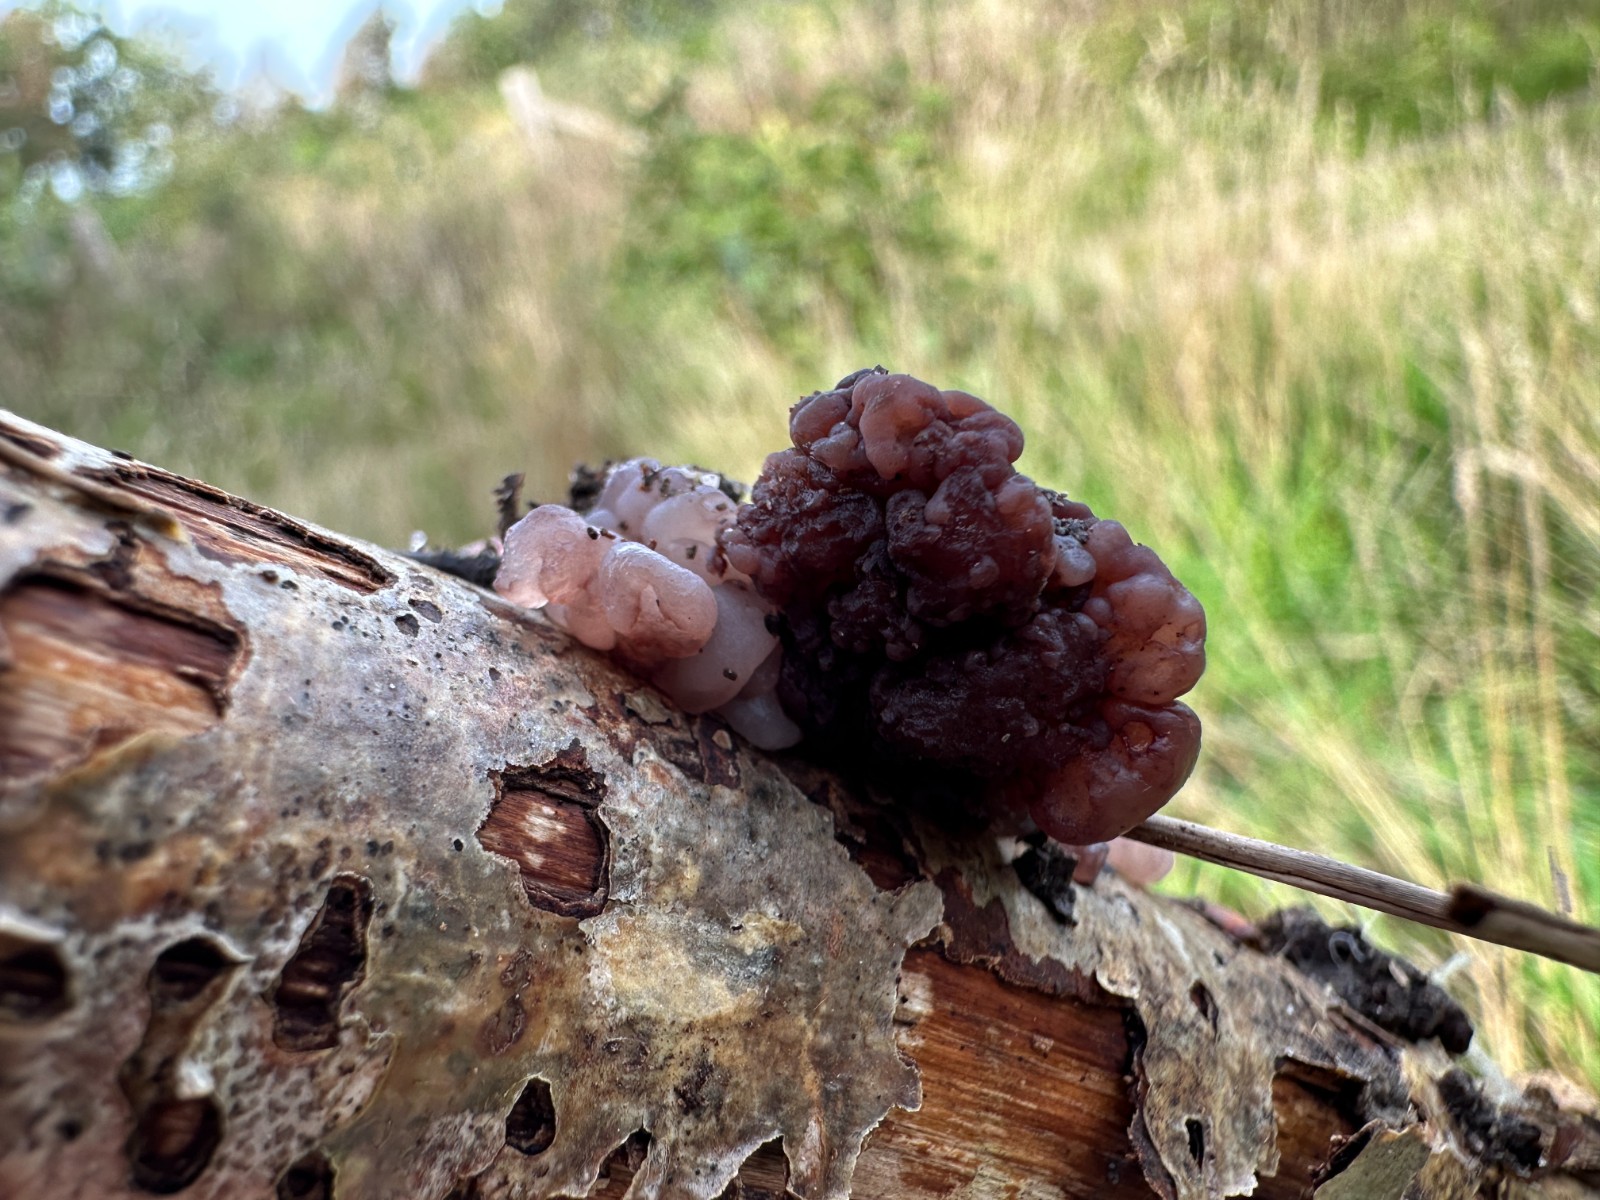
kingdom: Fungi
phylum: Ascomycota
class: Leotiomycetes
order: Helotiales
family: Gelatinodiscaceae
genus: Ascotremella
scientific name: Ascotremella faginea
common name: hjerne-bævreskive
